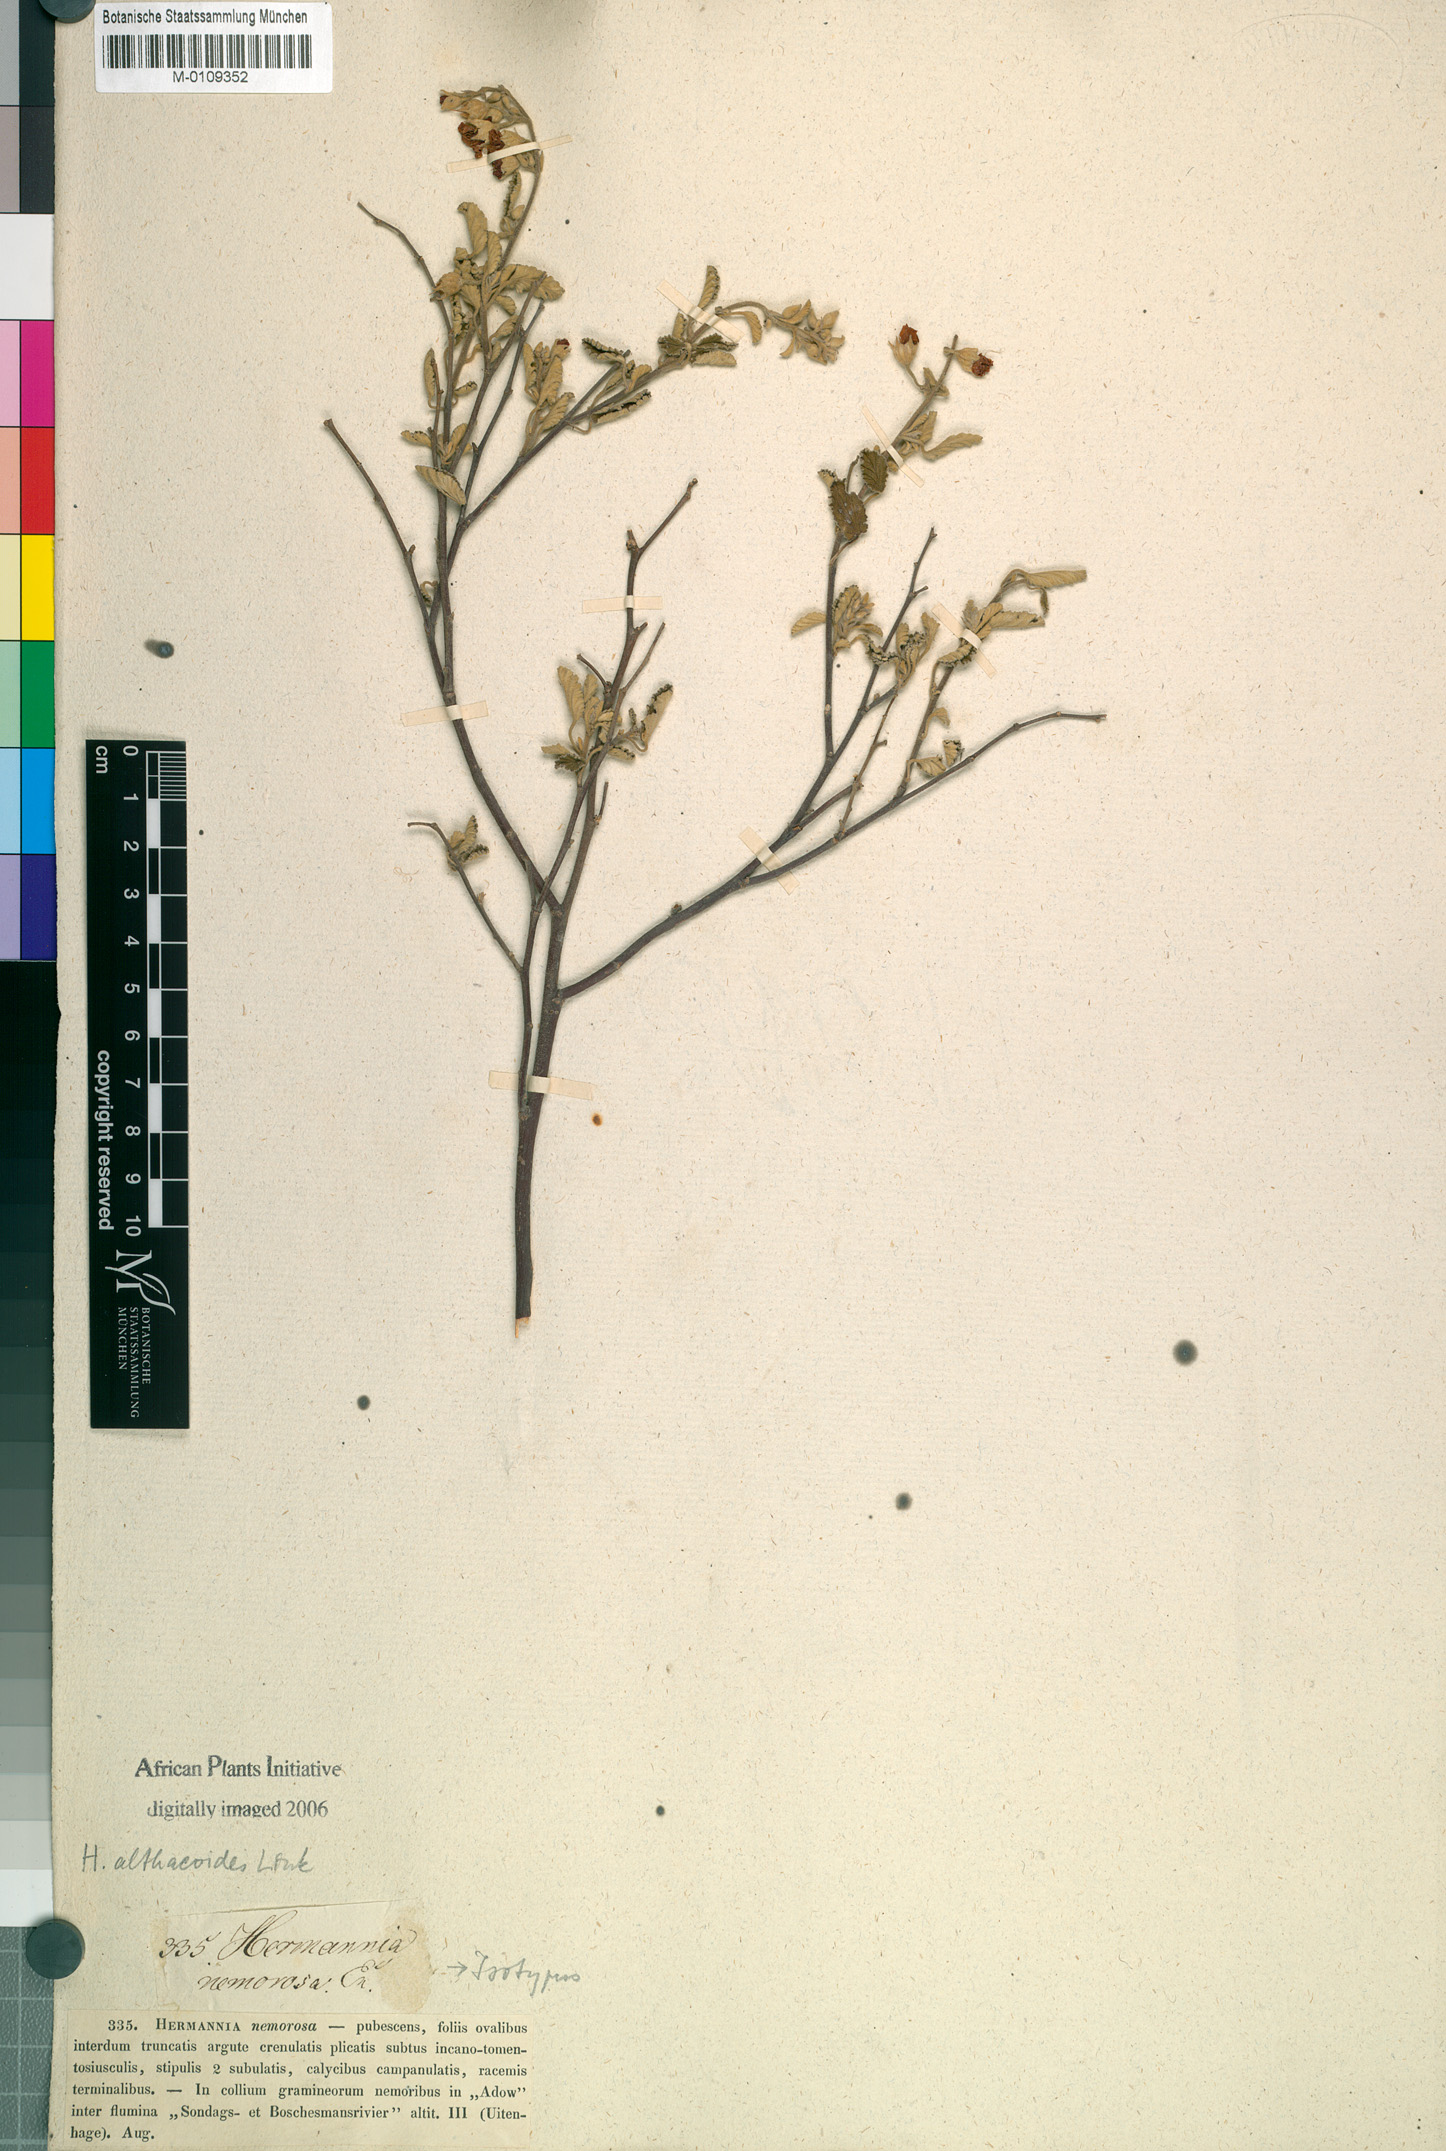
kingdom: Plantae
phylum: Tracheophyta
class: Magnoliopsida
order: Malvales
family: Malvaceae
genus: Hermannia
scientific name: Hermannia althaeoides
